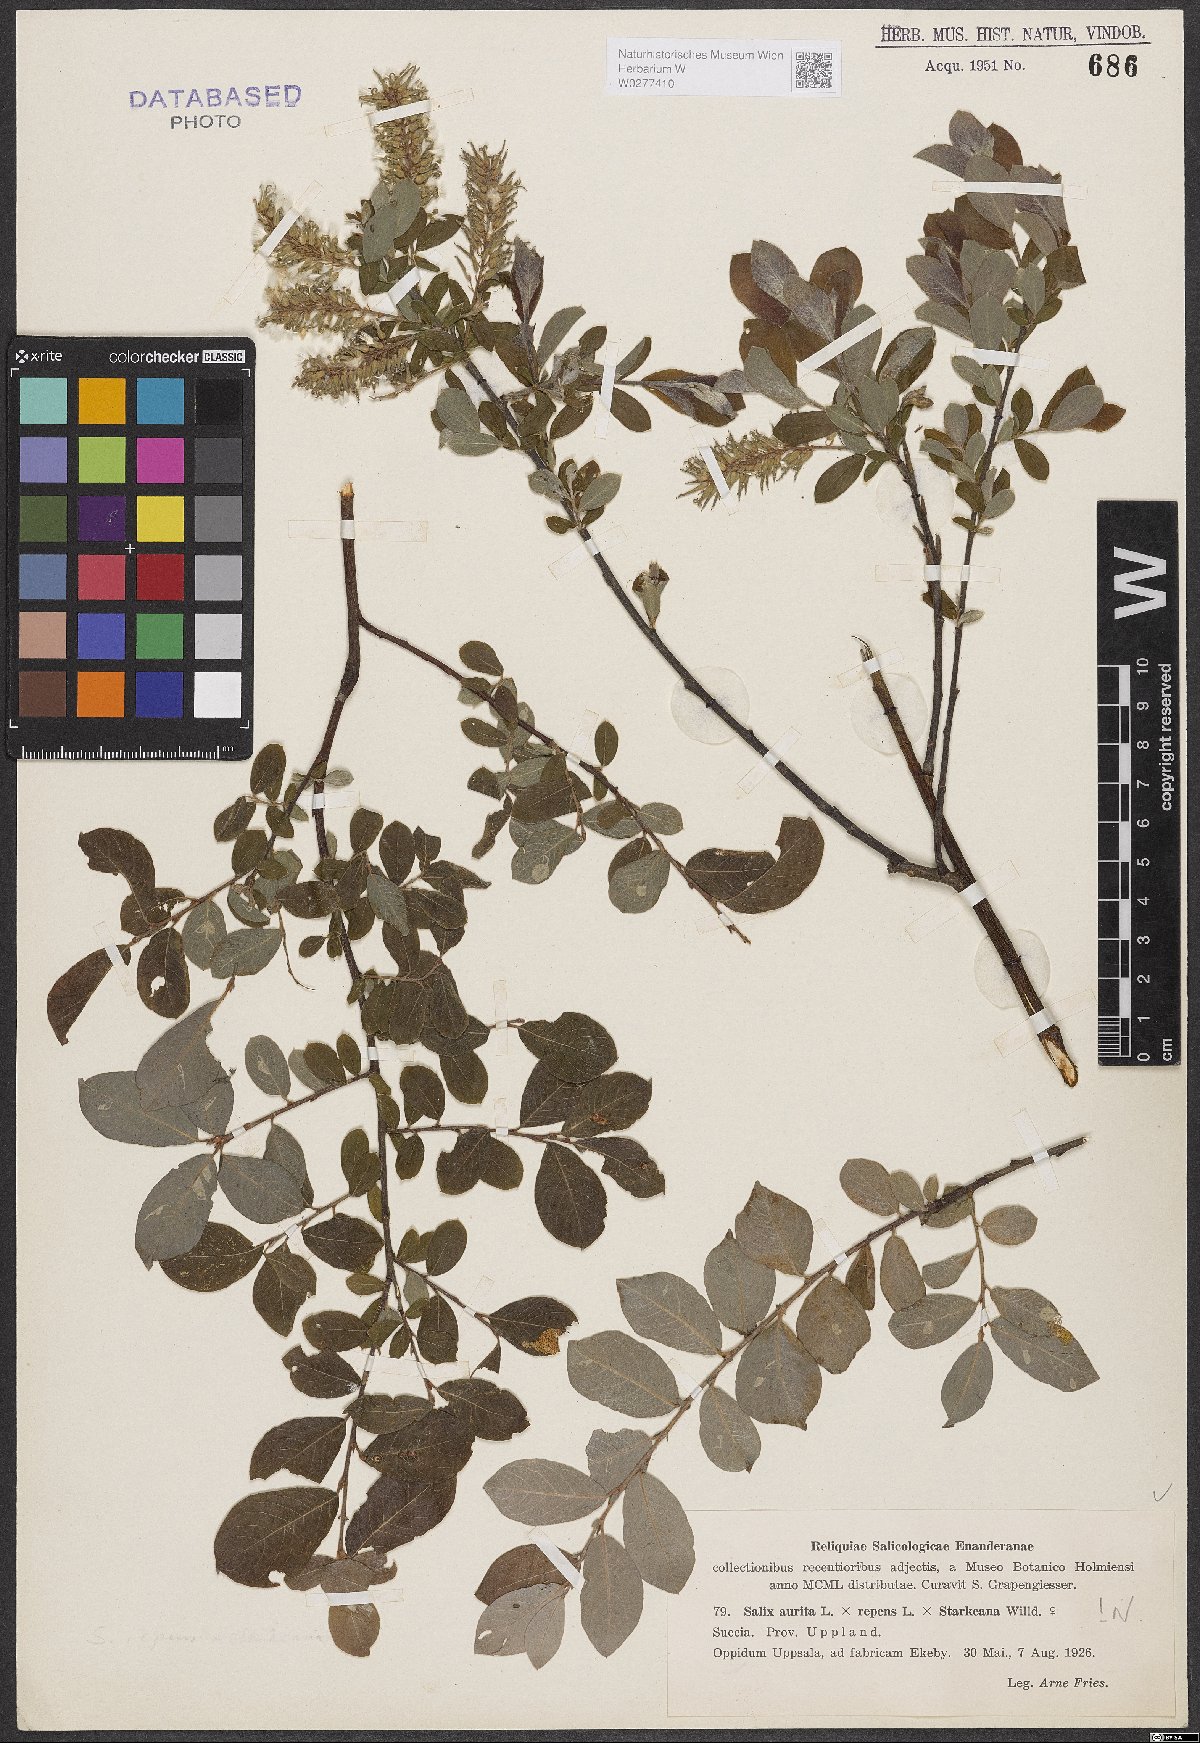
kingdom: Plantae
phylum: Tracheophyta
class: Magnoliopsida
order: Malpighiales
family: Salicaceae
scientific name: Salicaceae
